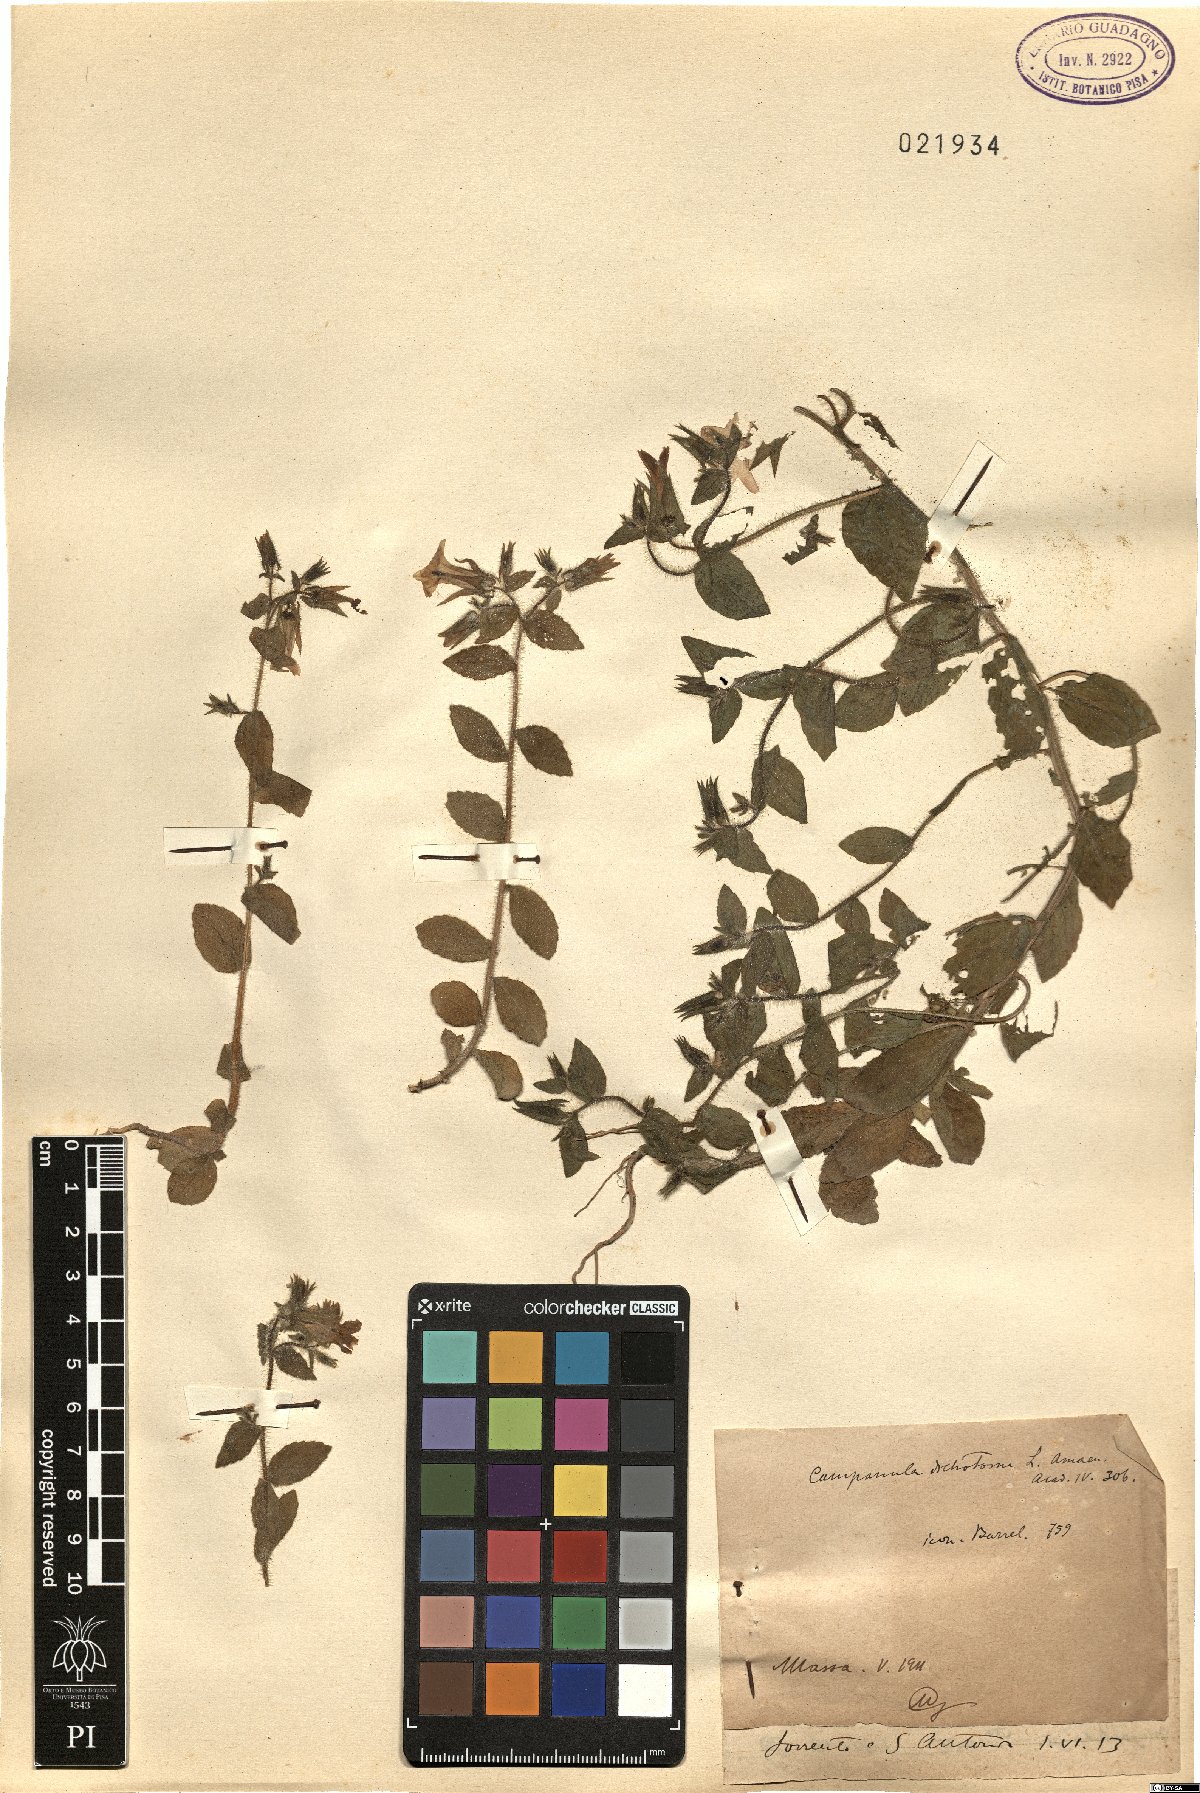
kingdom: Plantae
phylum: Tracheophyta
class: Magnoliopsida
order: Asterales
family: Campanulaceae
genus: Campanula
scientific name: Campanula dichotoma
